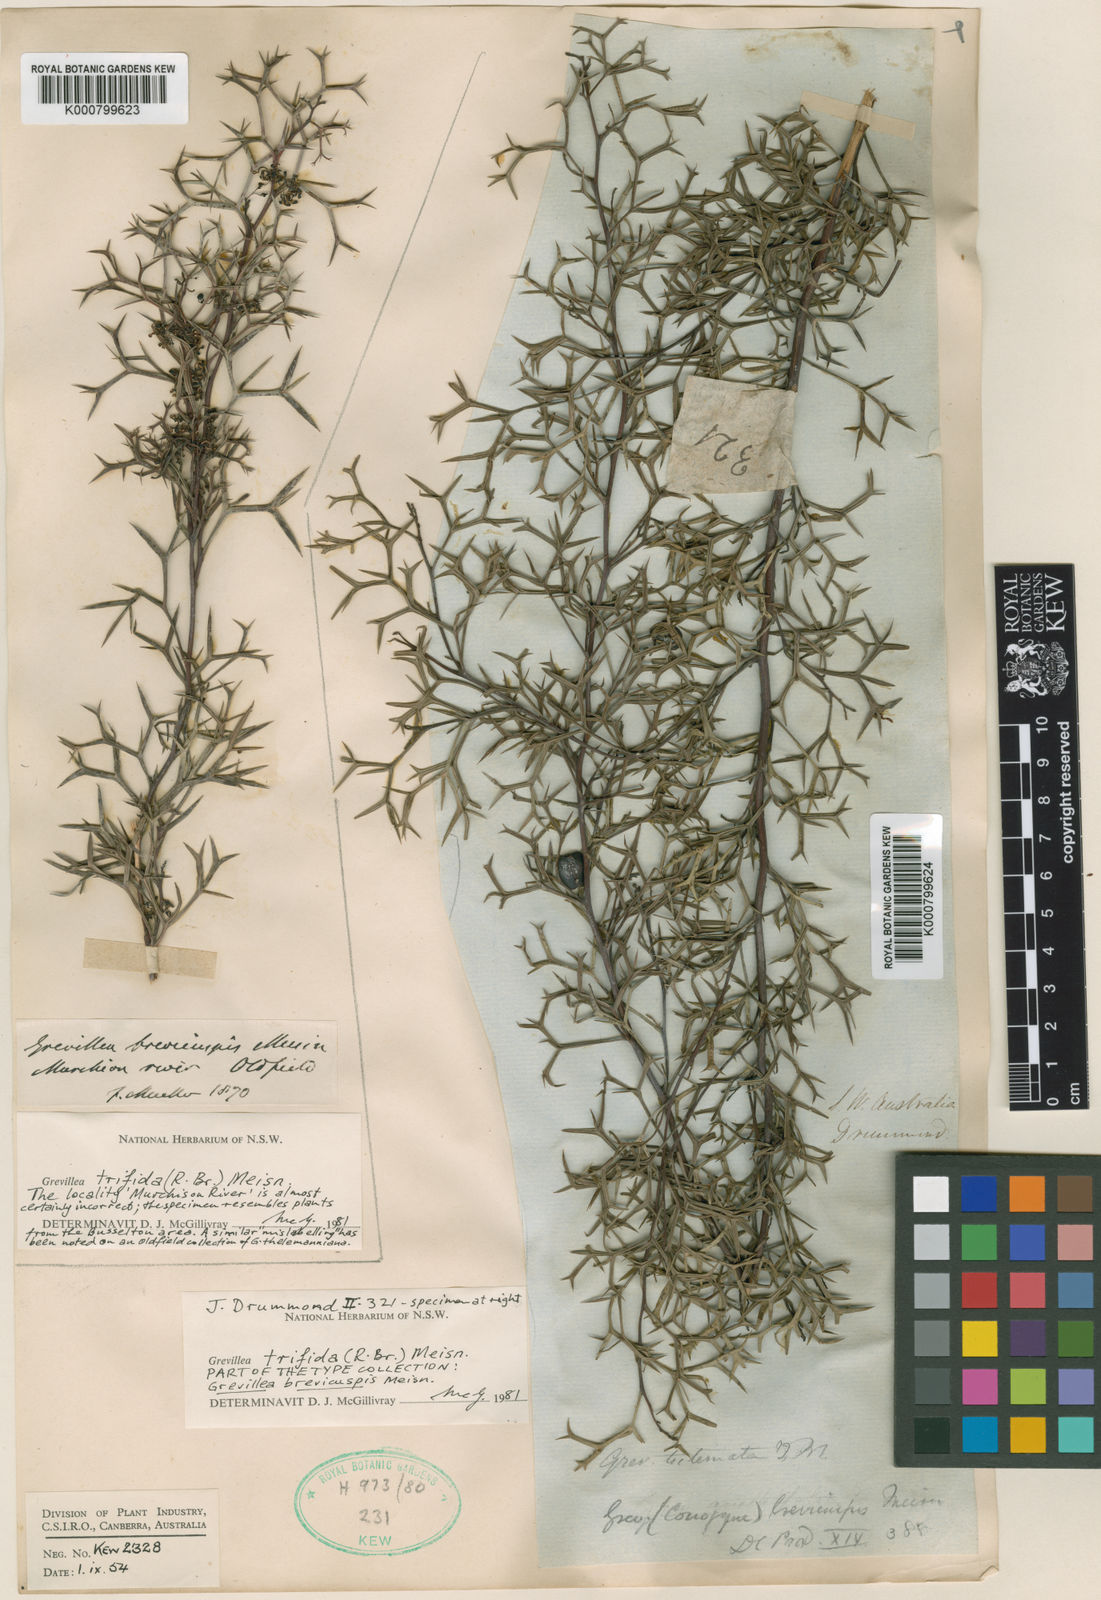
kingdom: Plantae
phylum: Tracheophyta
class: Magnoliopsida
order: Proteales
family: Proteaceae
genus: Grevillea
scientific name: Grevillea trifida
